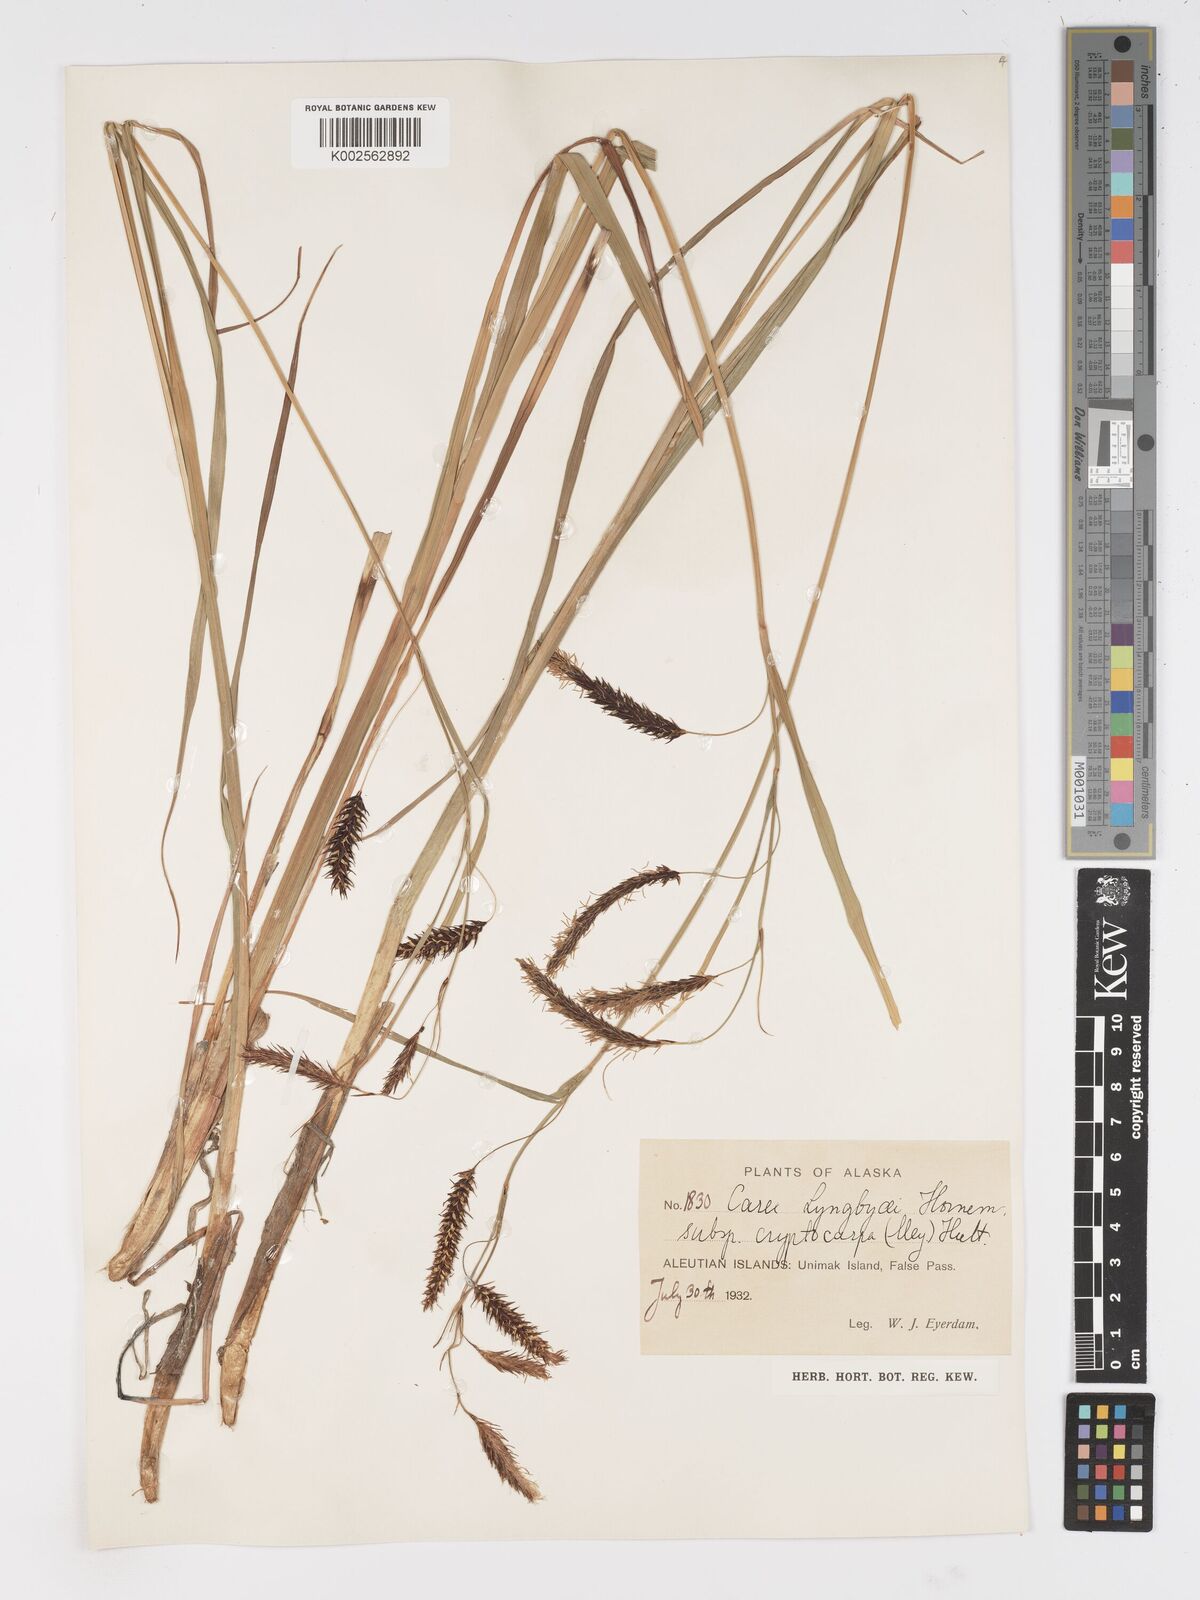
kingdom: Plantae
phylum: Tracheophyta
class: Liliopsida
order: Poales
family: Cyperaceae
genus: Carex
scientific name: Carex lyngbyei
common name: Lyngbye's sedge
